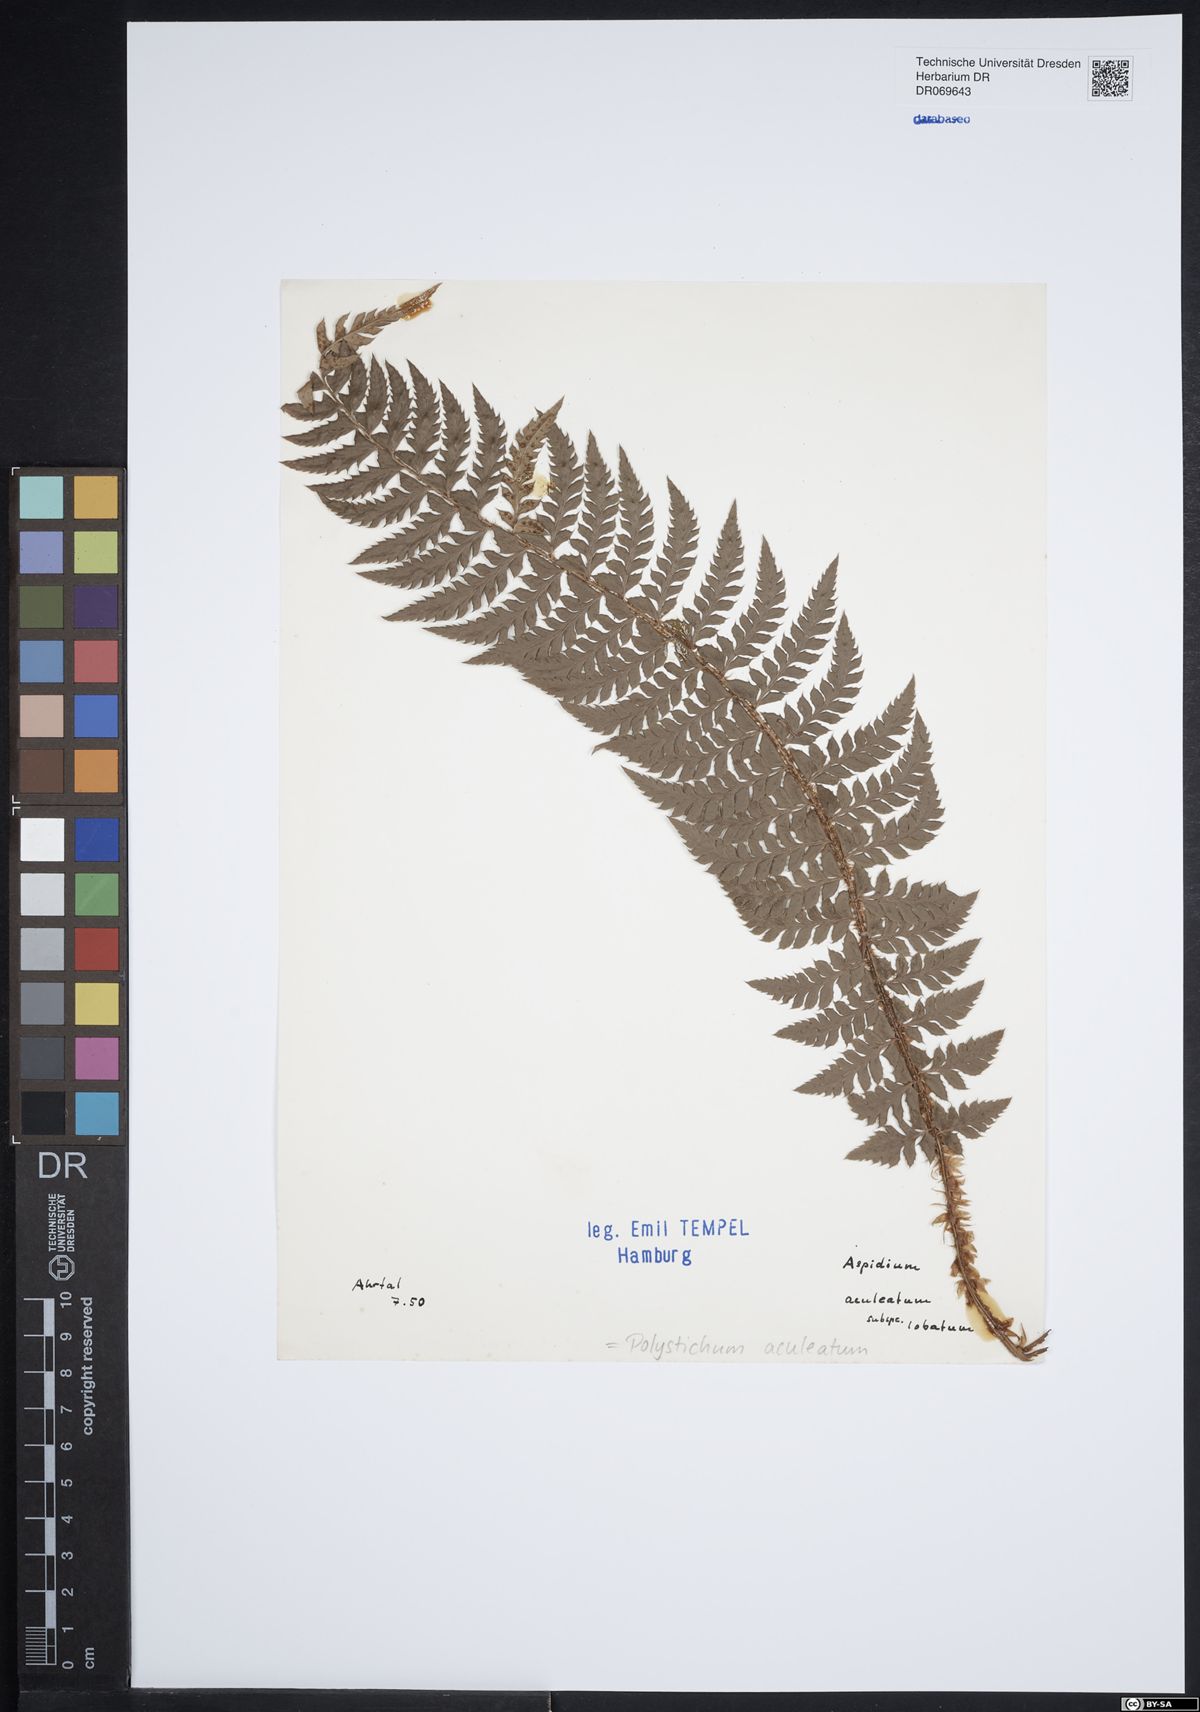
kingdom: Plantae
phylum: Tracheophyta
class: Polypodiopsida
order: Polypodiales
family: Dryopteridaceae
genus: Polystichum
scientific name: Polystichum aculeatum
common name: Hard shield-fern
